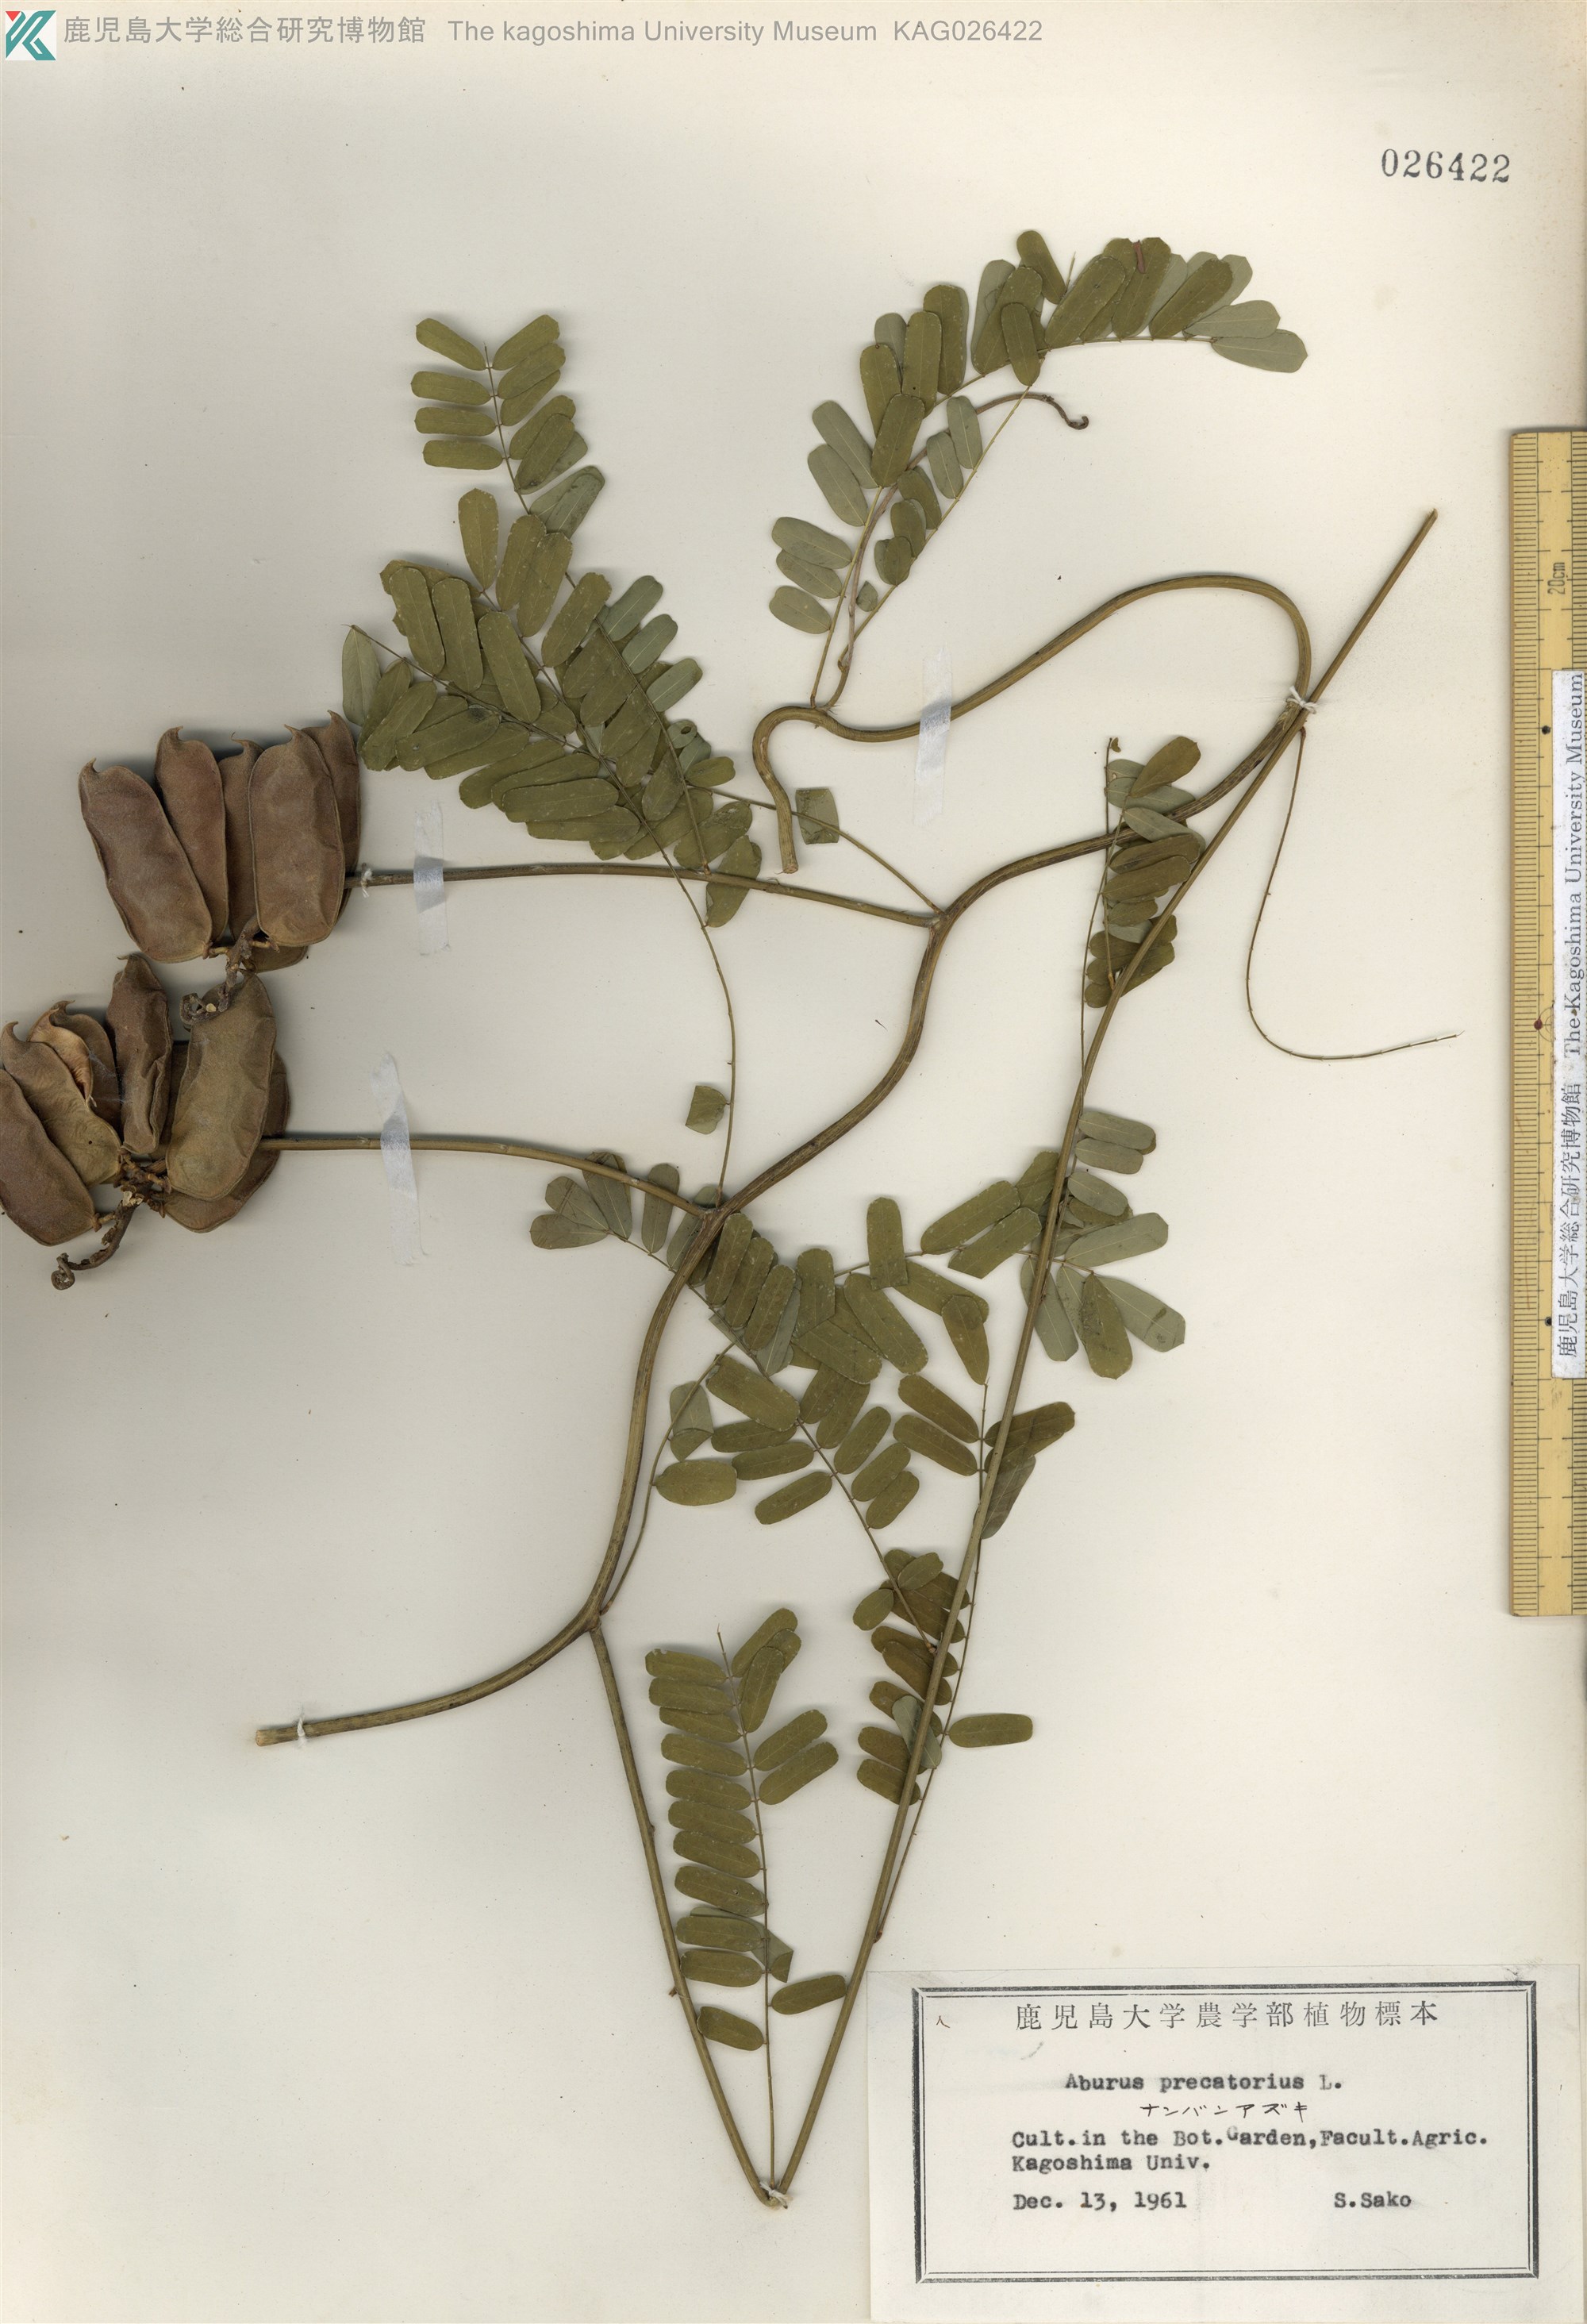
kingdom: Plantae
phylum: Tracheophyta
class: Magnoliopsida
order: Fabales
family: Fabaceae
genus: Abrus
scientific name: Abrus precatorius
